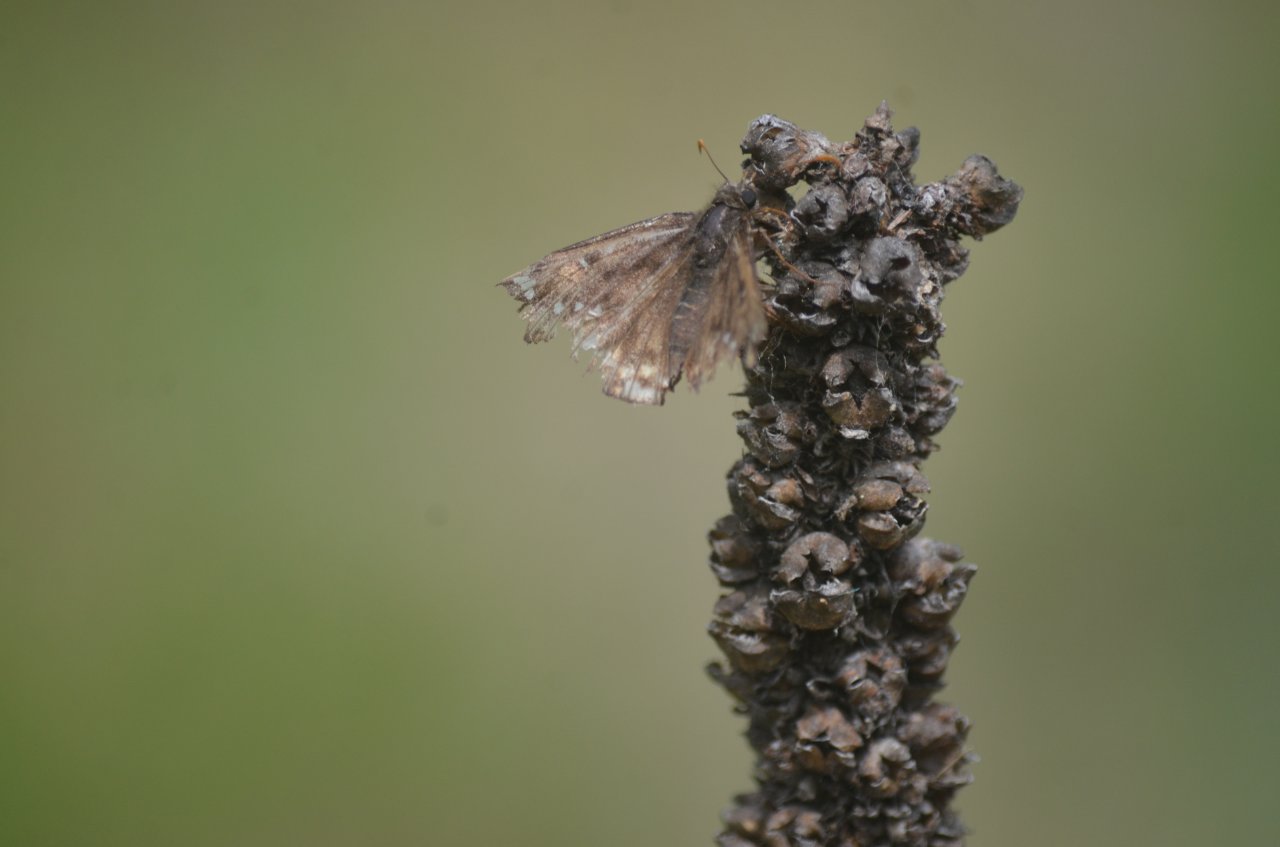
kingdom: Animalia
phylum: Arthropoda
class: Insecta
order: Lepidoptera
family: Hesperiidae
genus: Gesta
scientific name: Gesta
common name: Juvenal's Duskywing
